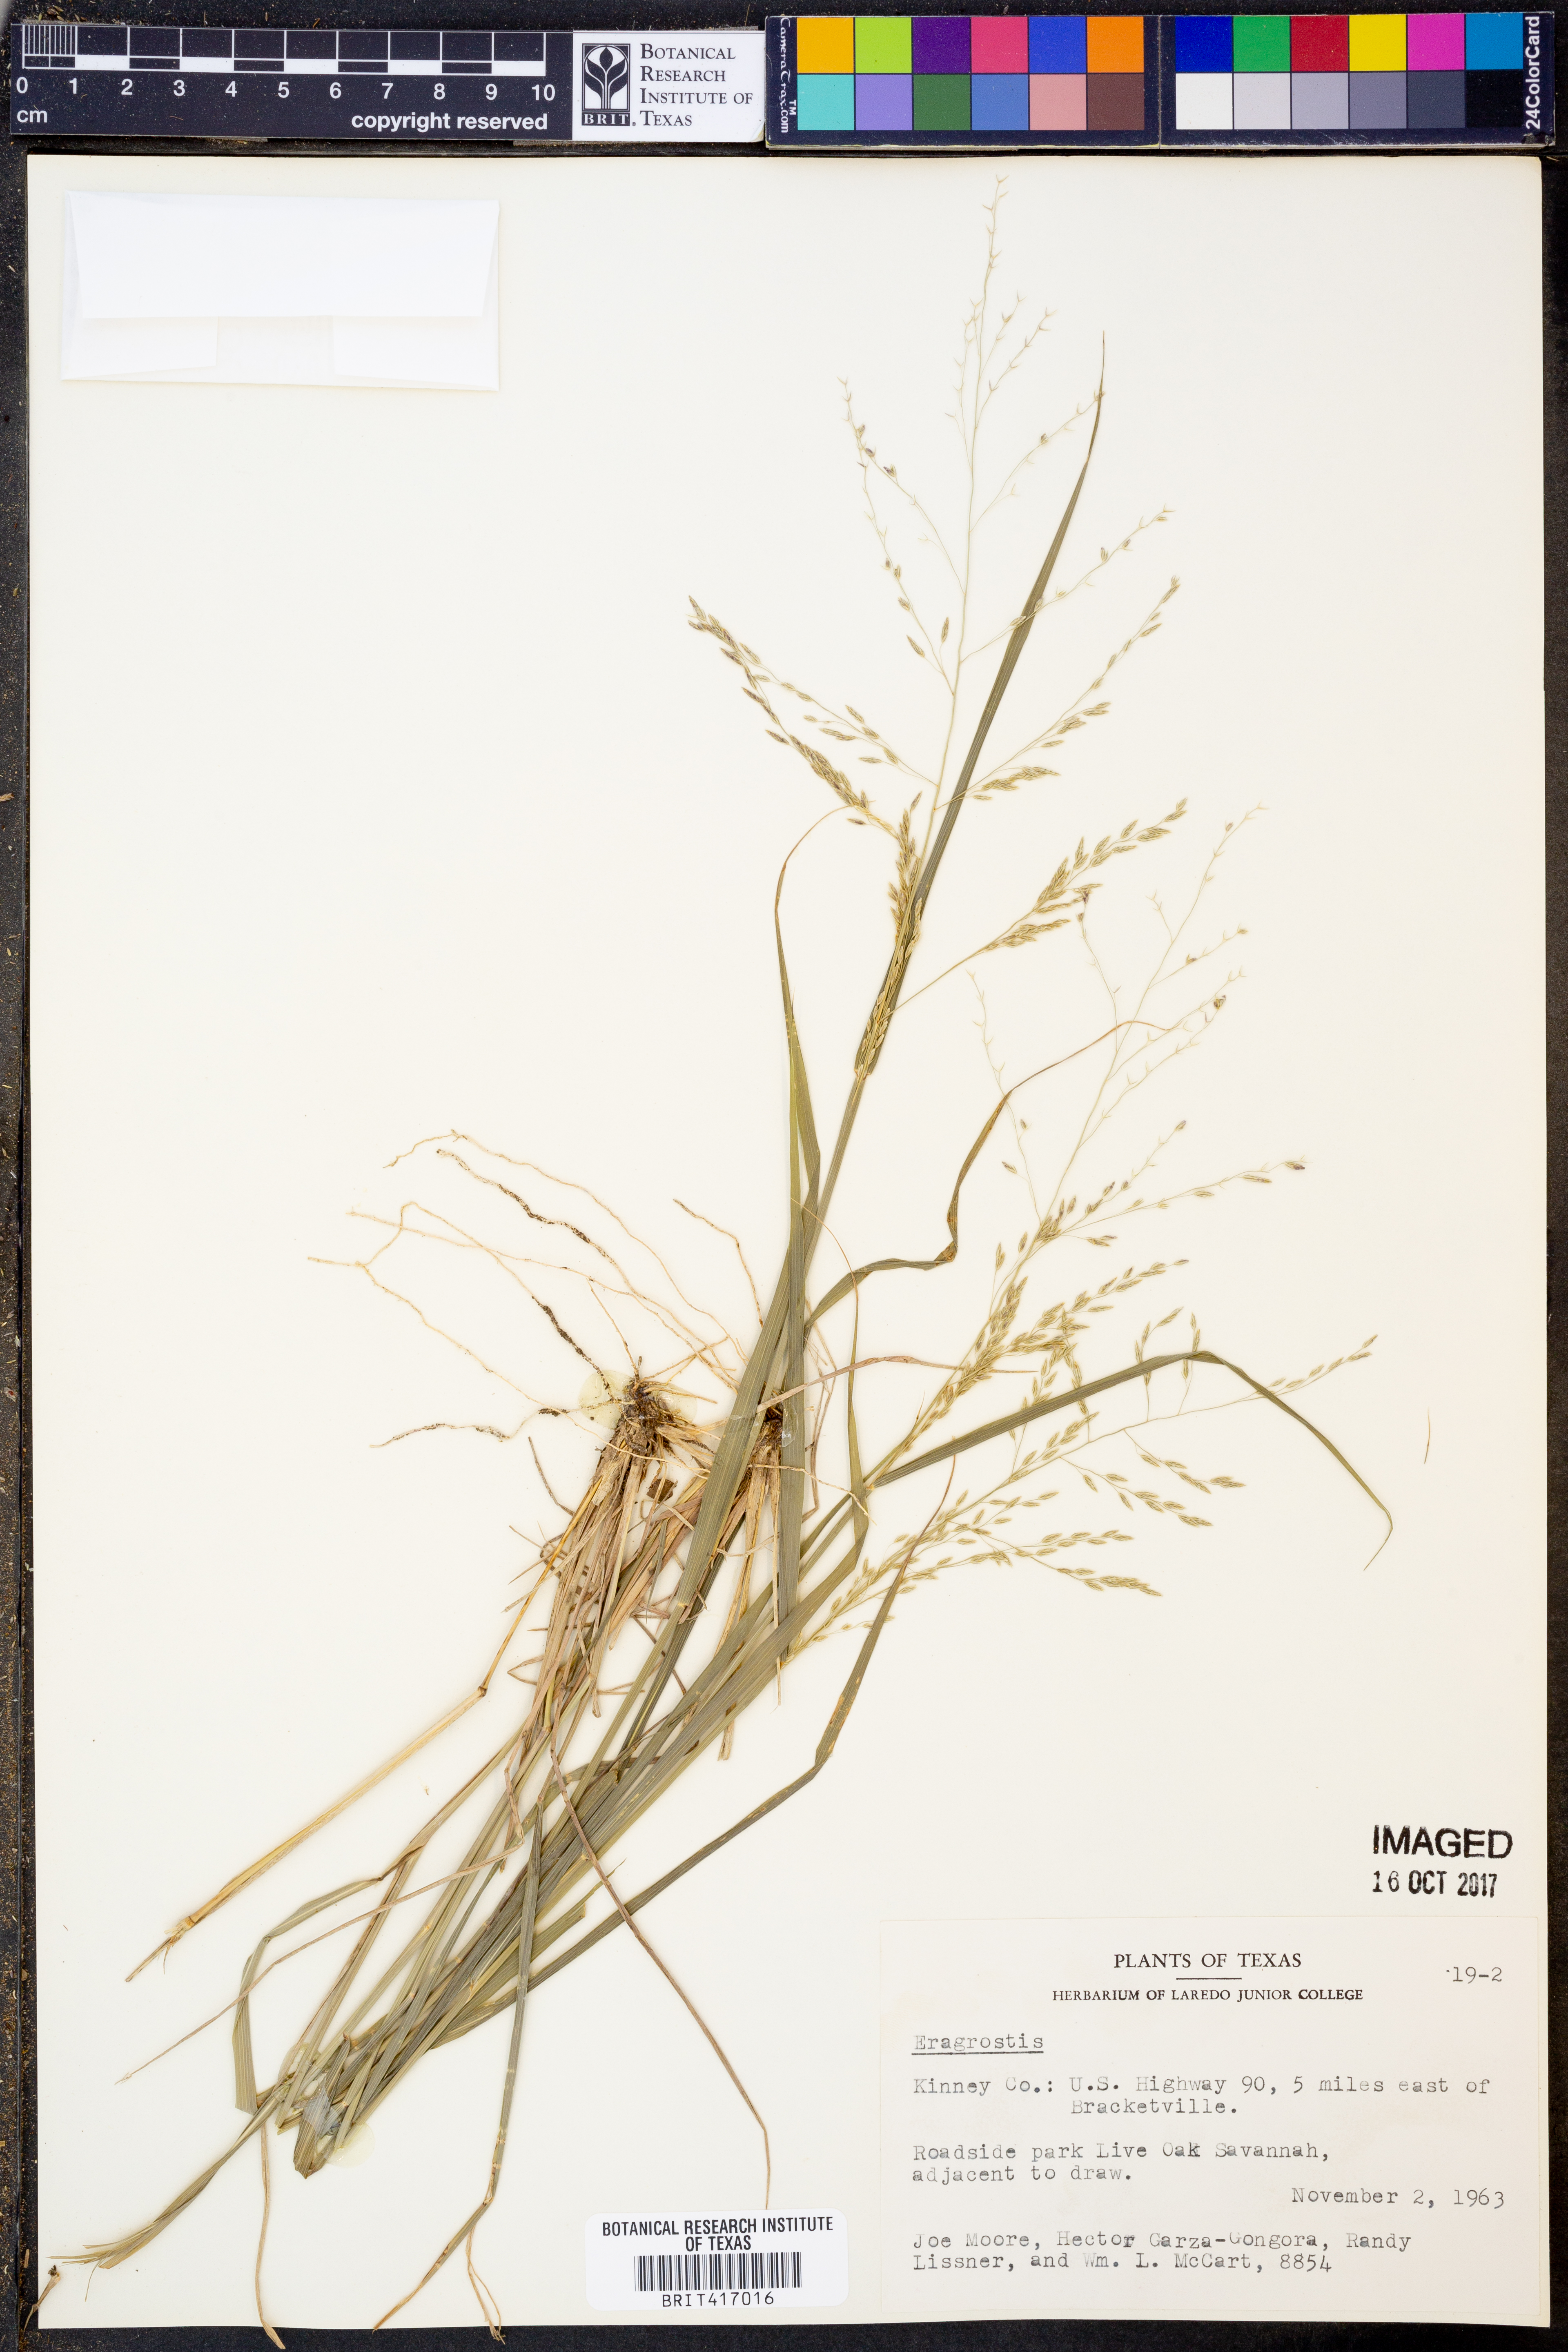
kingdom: Plantae
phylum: Tracheophyta
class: Liliopsida
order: Poales
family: Poaceae
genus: Eragrostis
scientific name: Eragrostis
